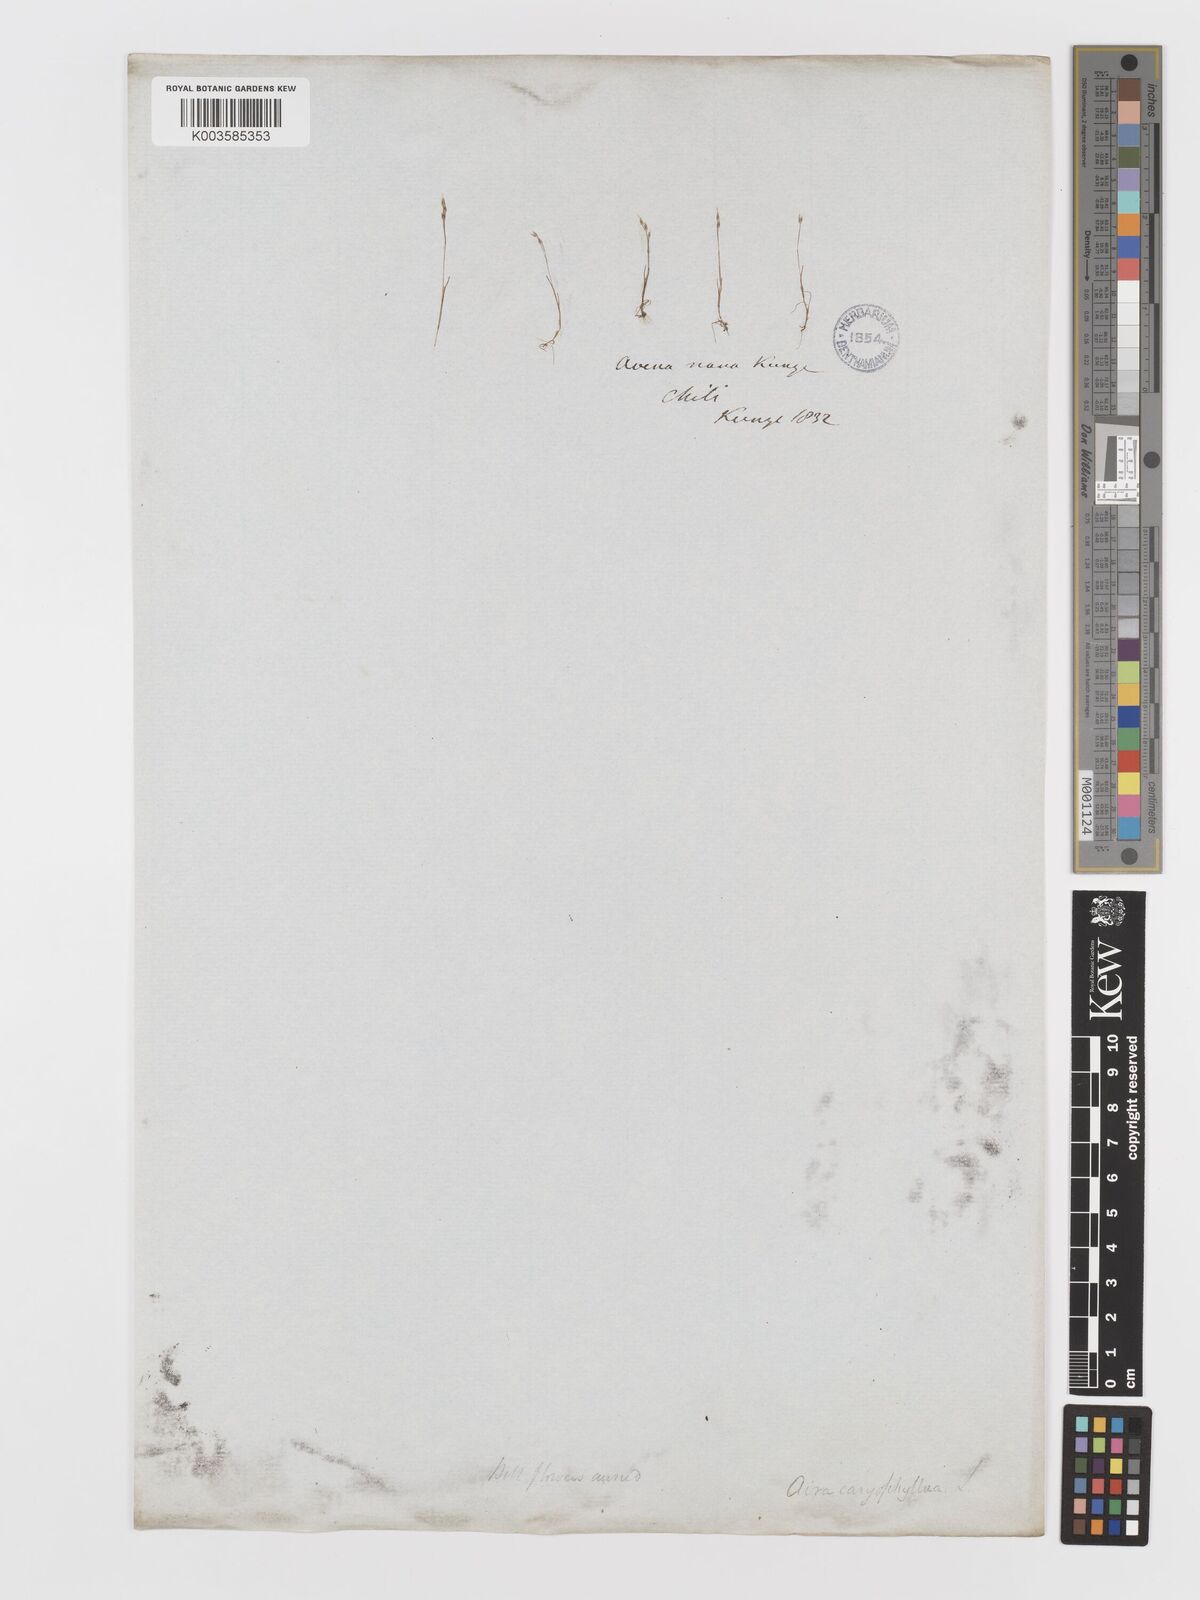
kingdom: Plantae
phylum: Tracheophyta
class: Liliopsida
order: Poales
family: Poaceae
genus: Aira
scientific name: Aira praecox
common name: Early hair-grass
